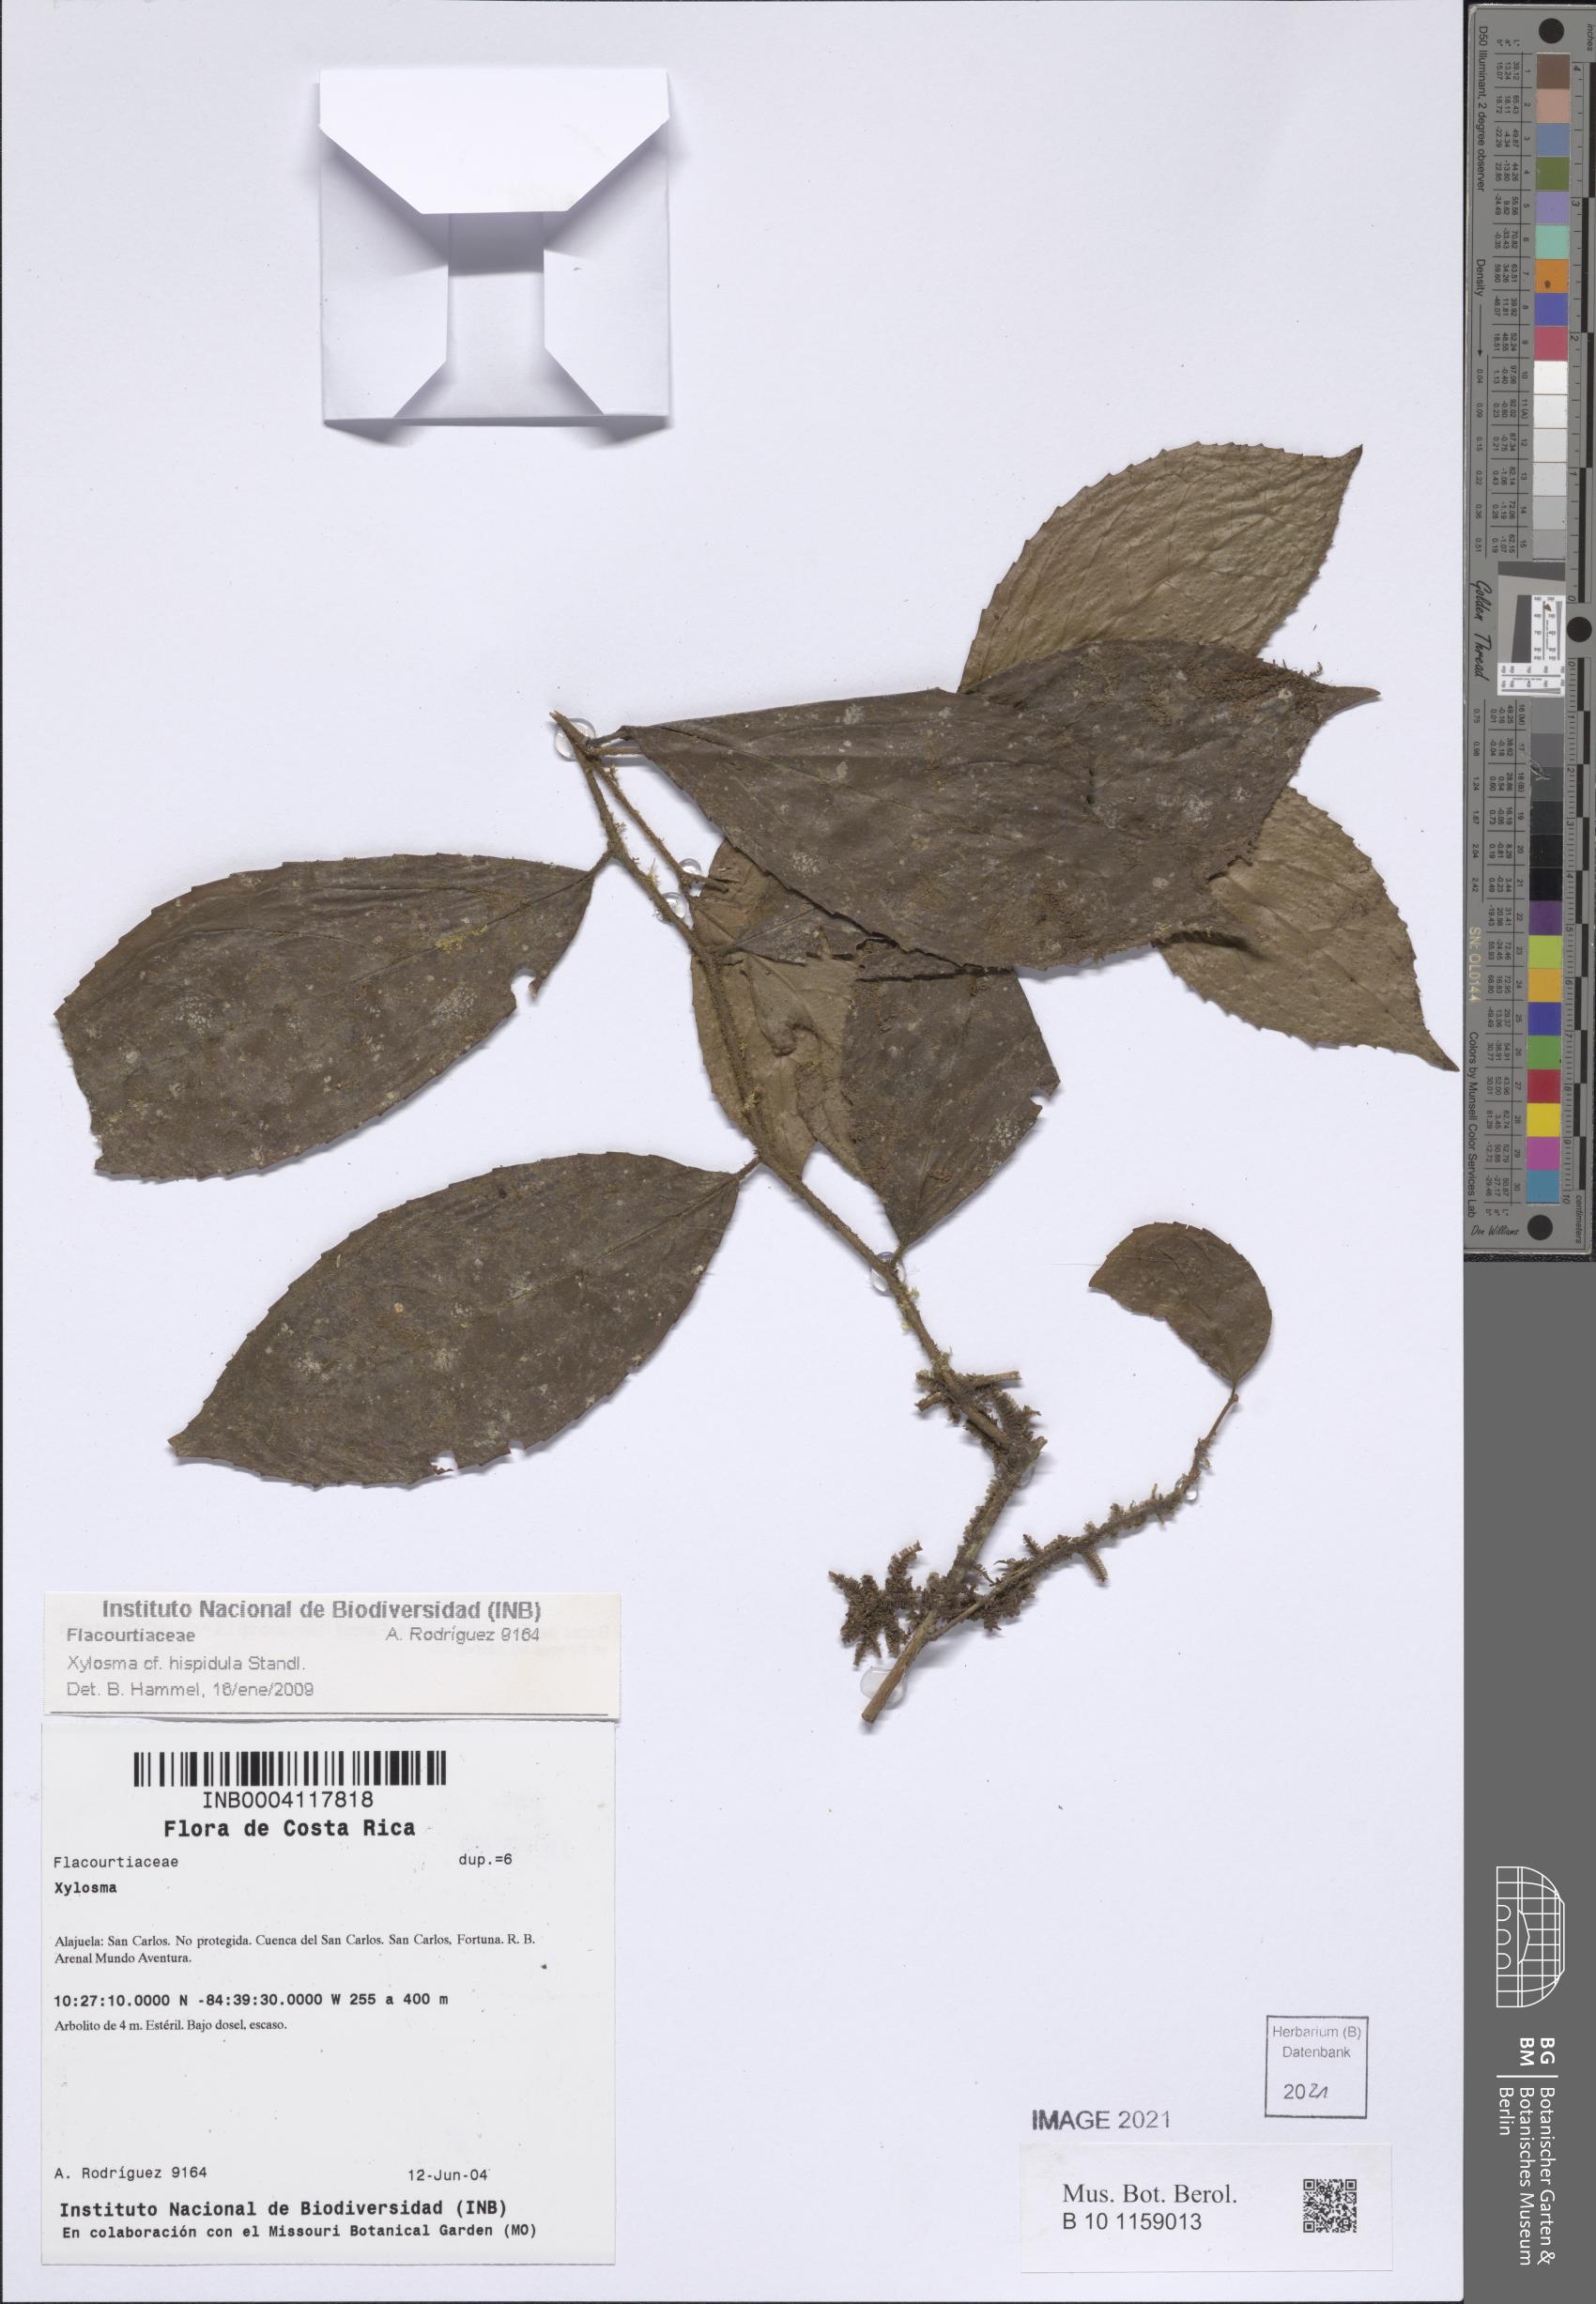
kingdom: Plantae
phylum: Tracheophyta
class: Magnoliopsida
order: Malpighiales
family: Salicaceae
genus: Xylosma
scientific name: Xylosma hispidula
